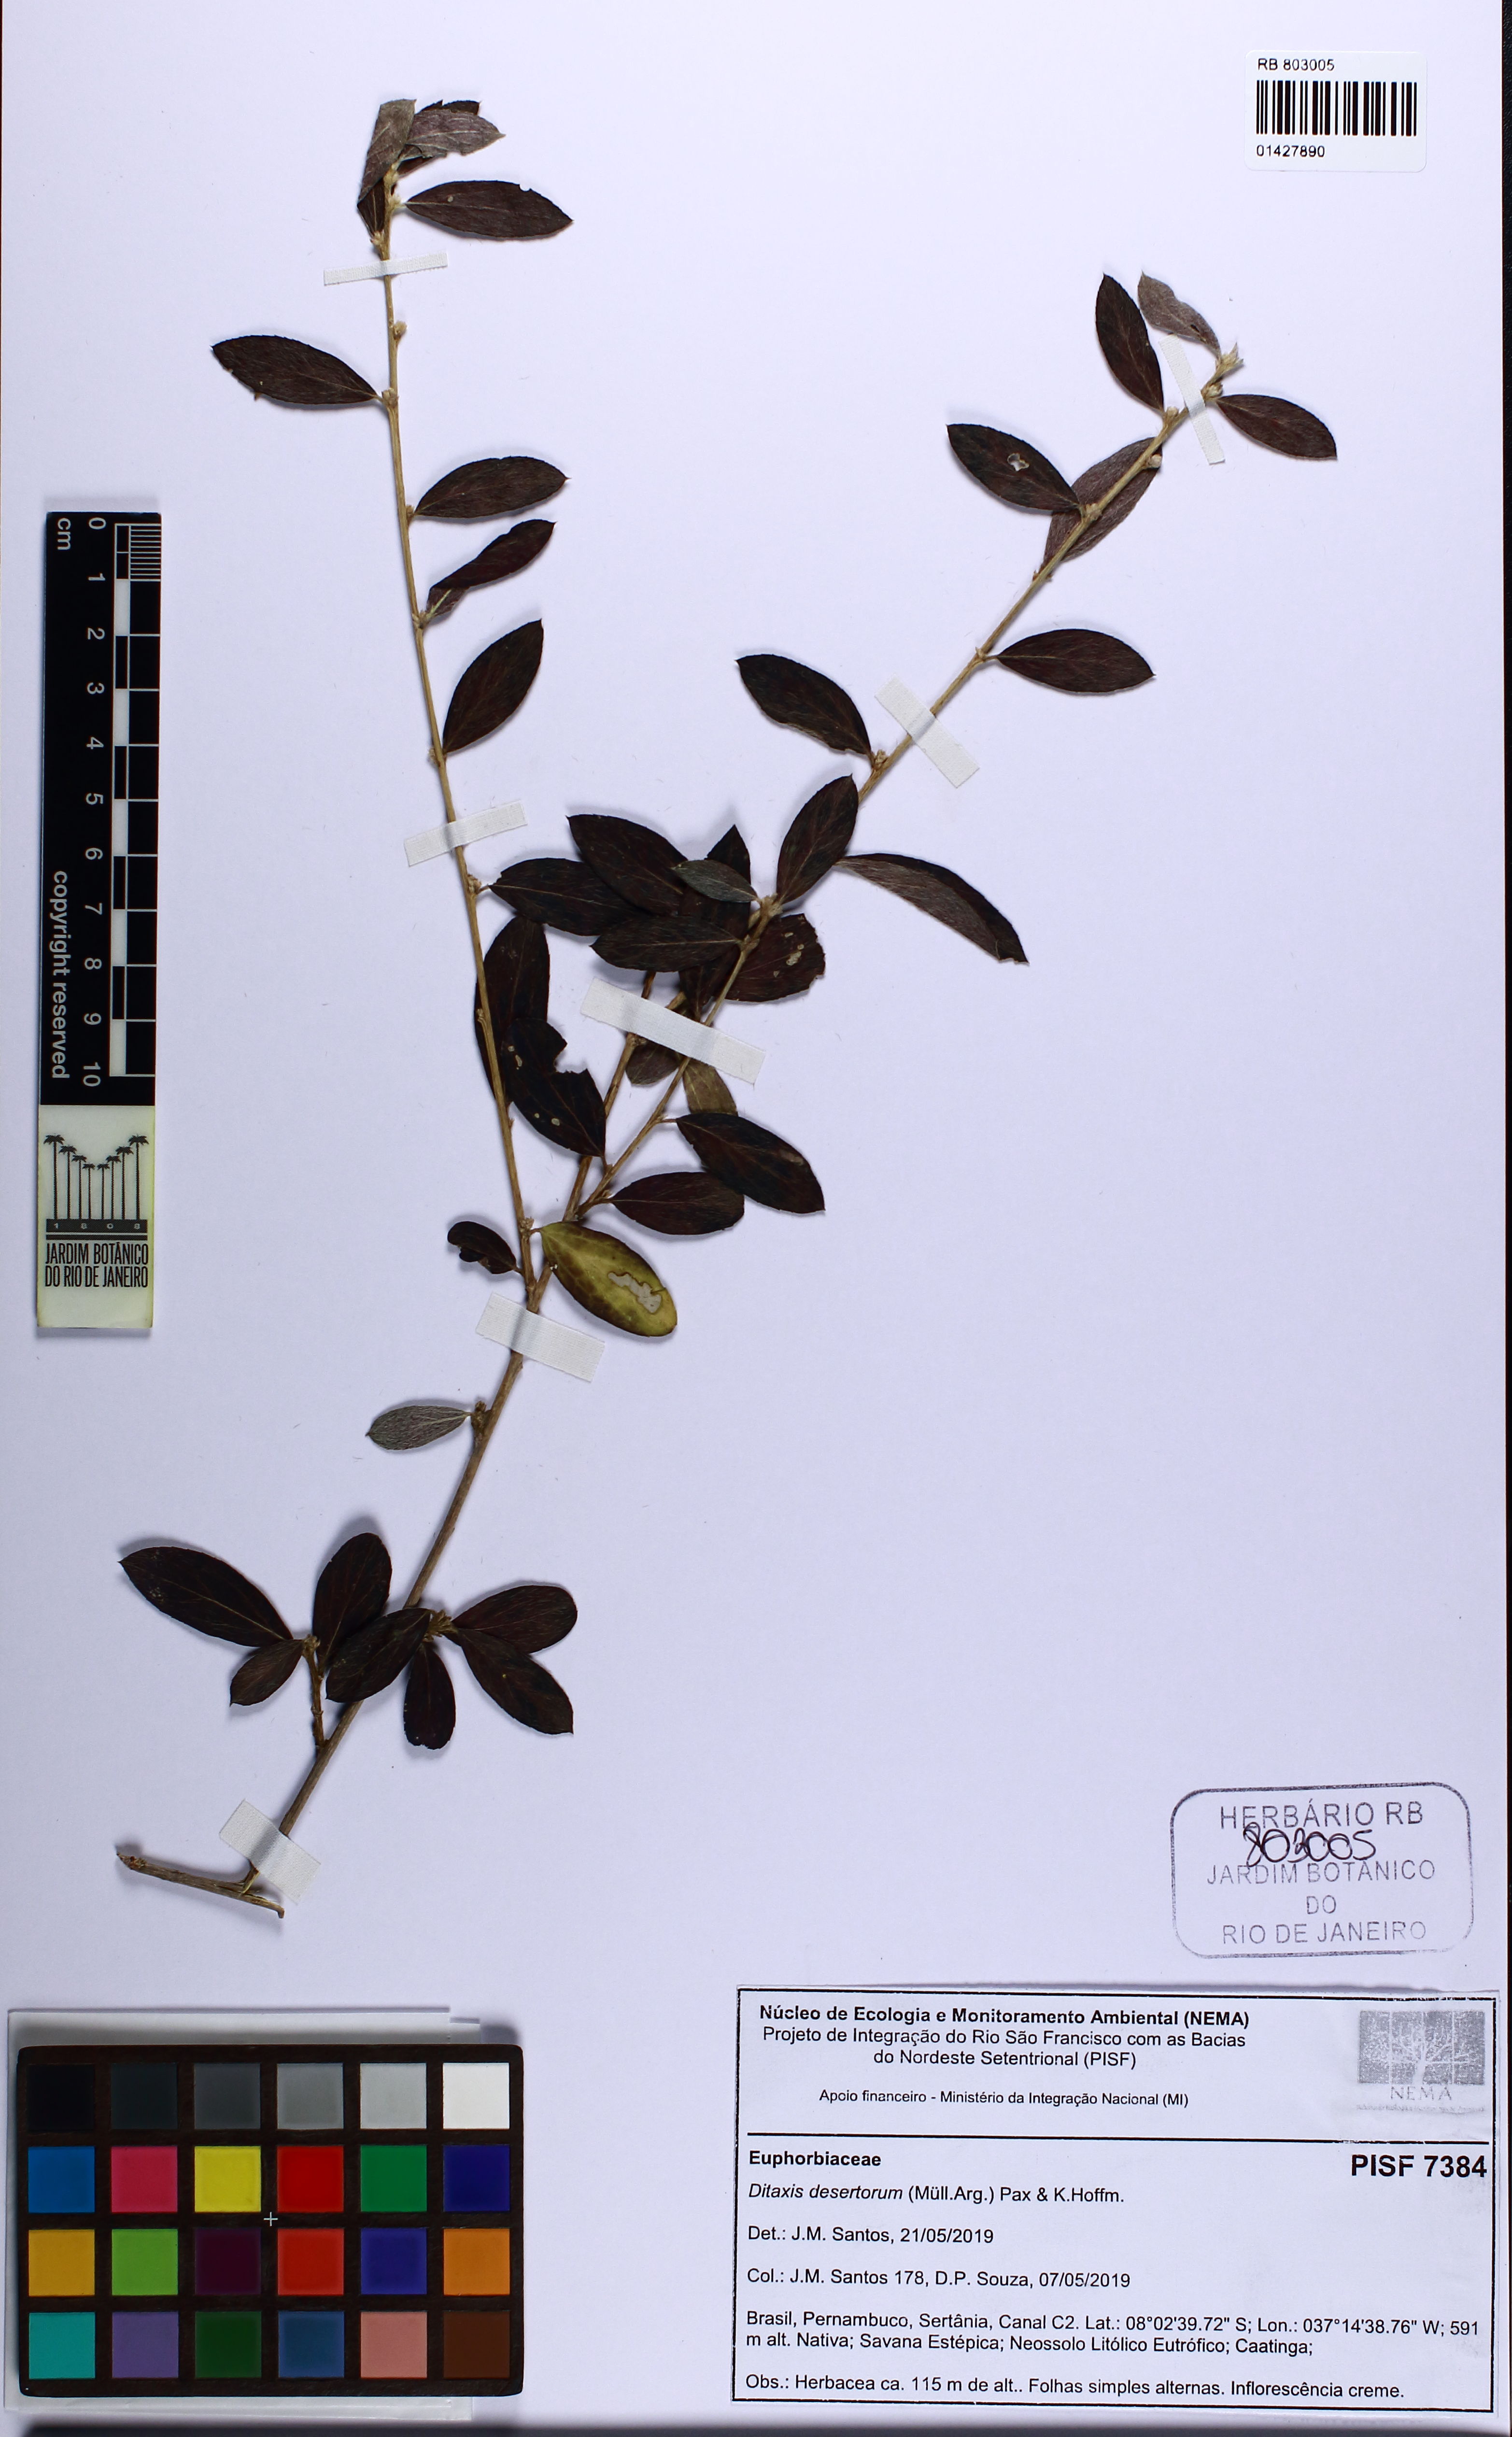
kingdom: Plantae
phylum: Tracheophyta
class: Magnoliopsida
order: Malpighiales
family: Euphorbiaceae
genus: Ditaxis
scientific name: Ditaxis desertorum
